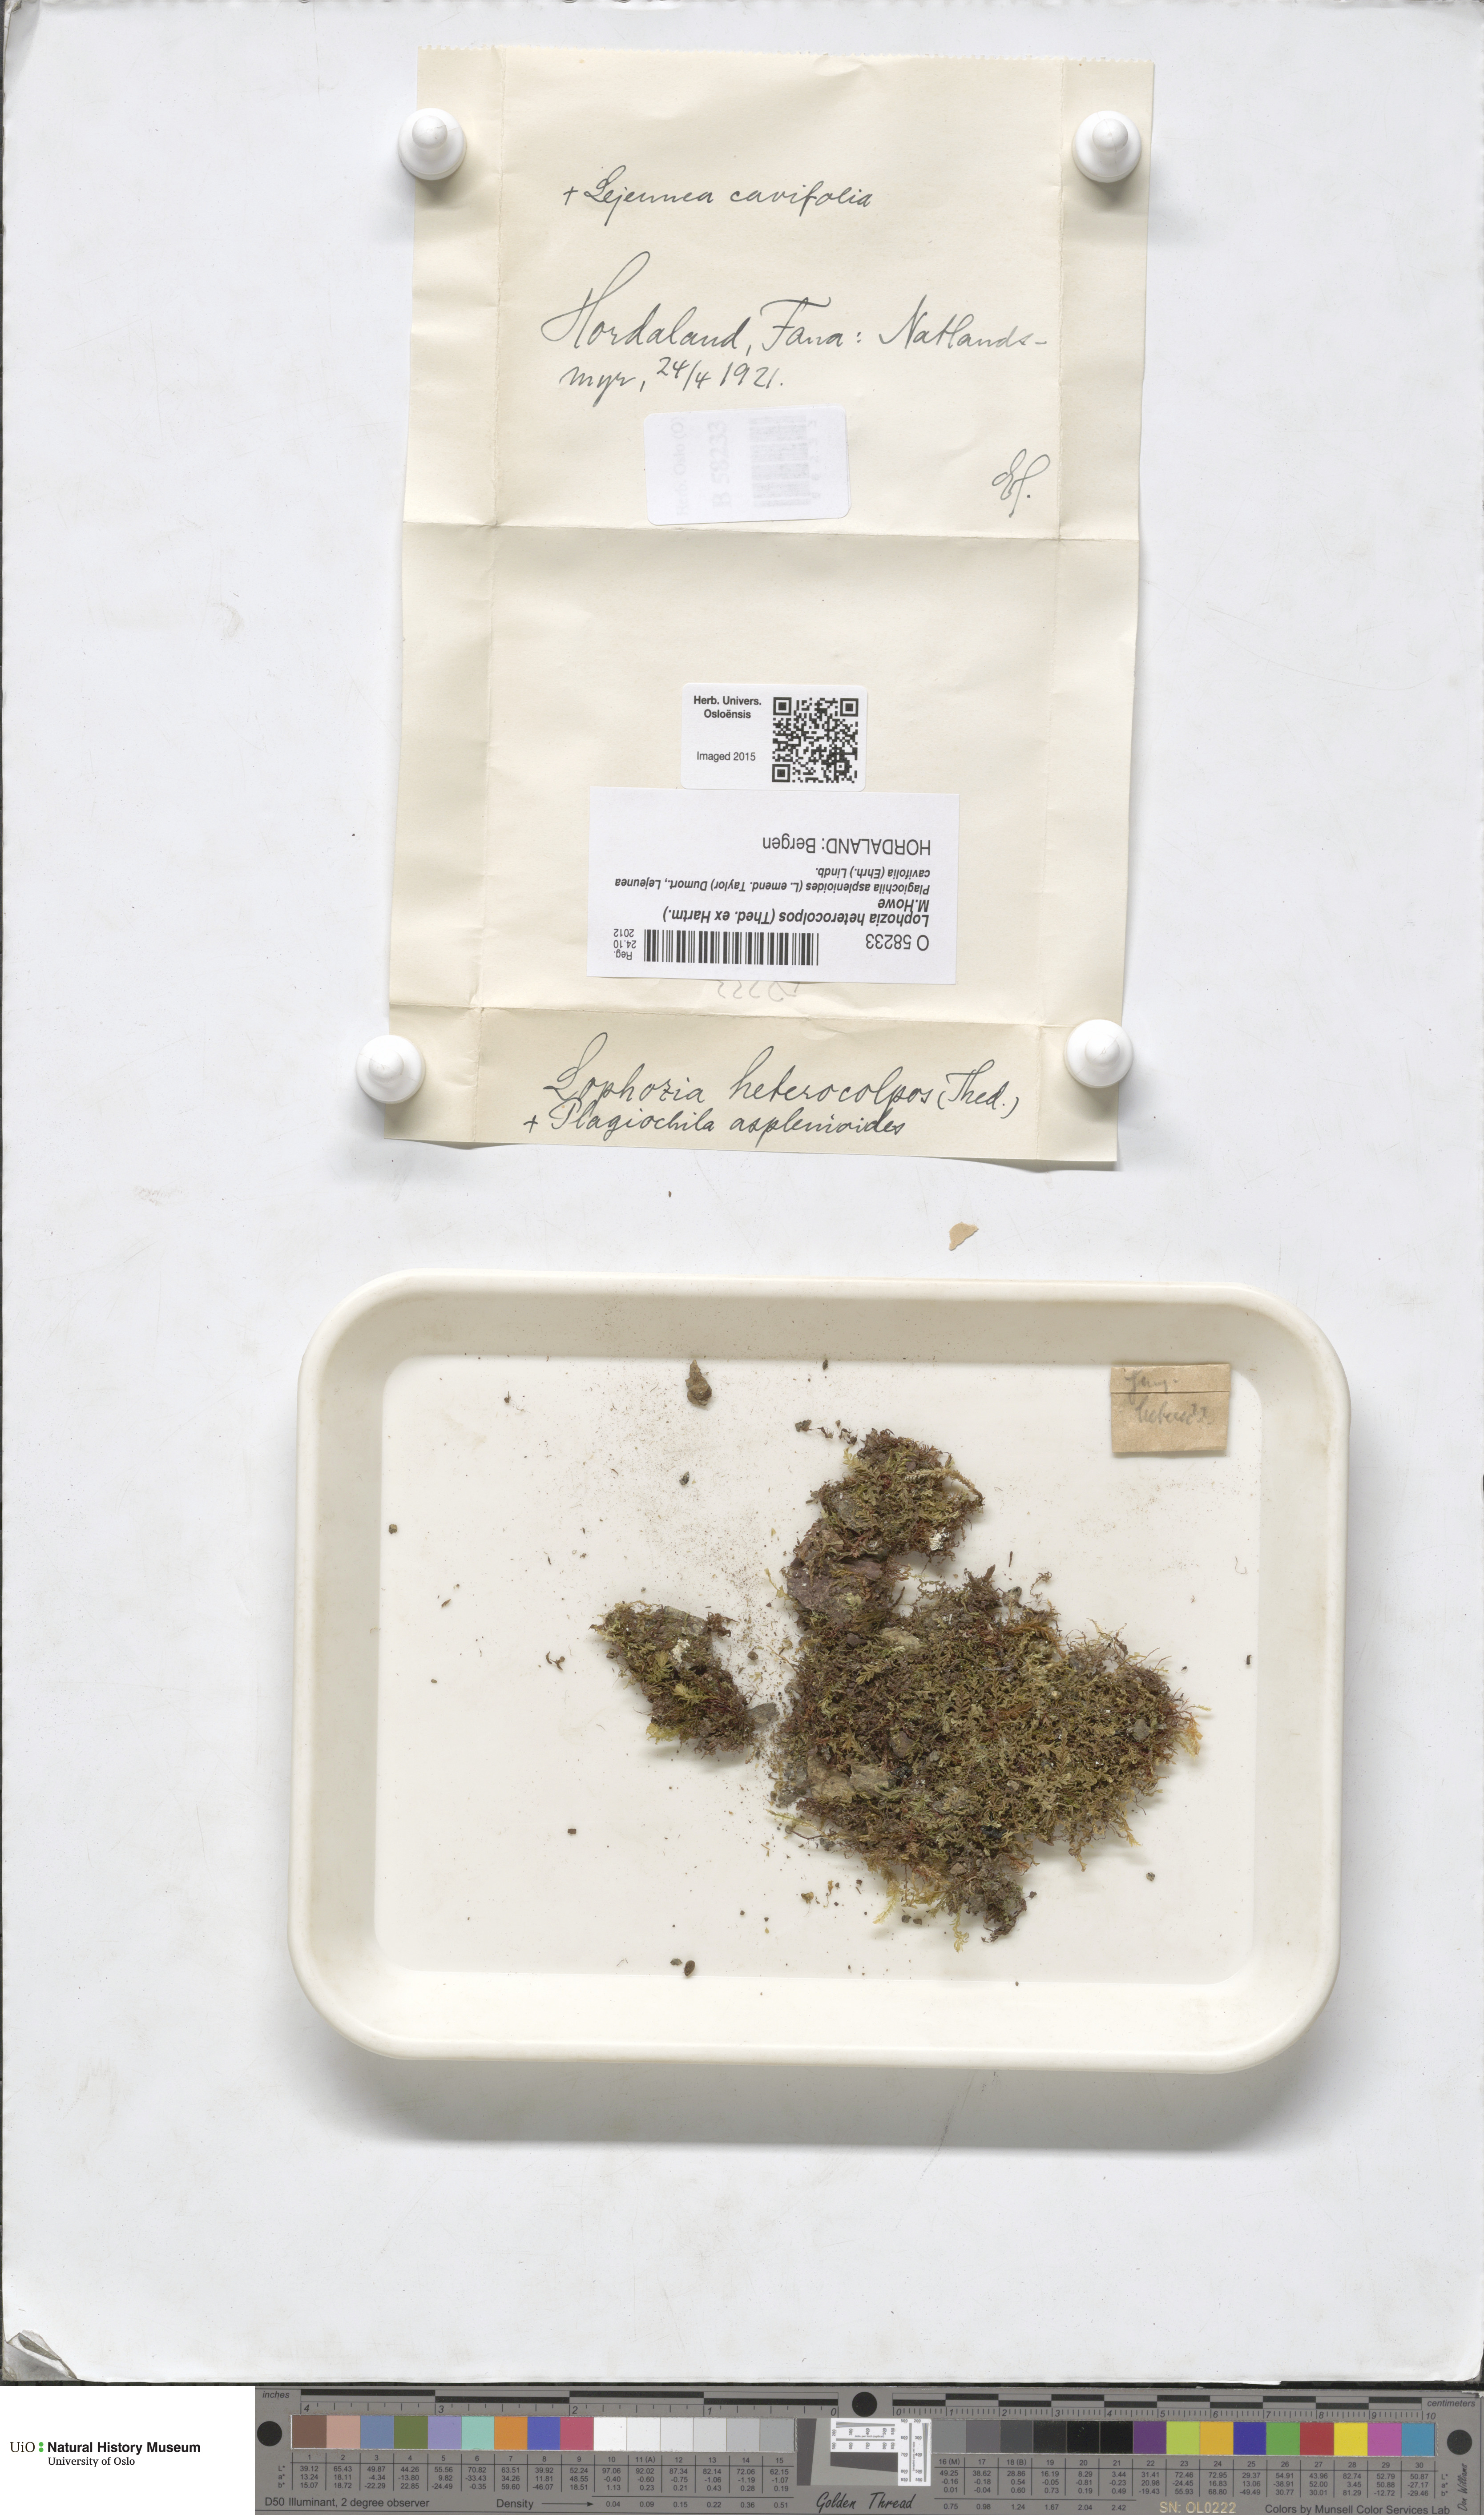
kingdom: Plantae
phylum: Marchantiophyta
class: Jungermanniopsida
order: Jungermanniales
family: Jungermanniaceae
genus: Mesoptychia
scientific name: Mesoptychia heterocolpos
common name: Ragged notchwort
